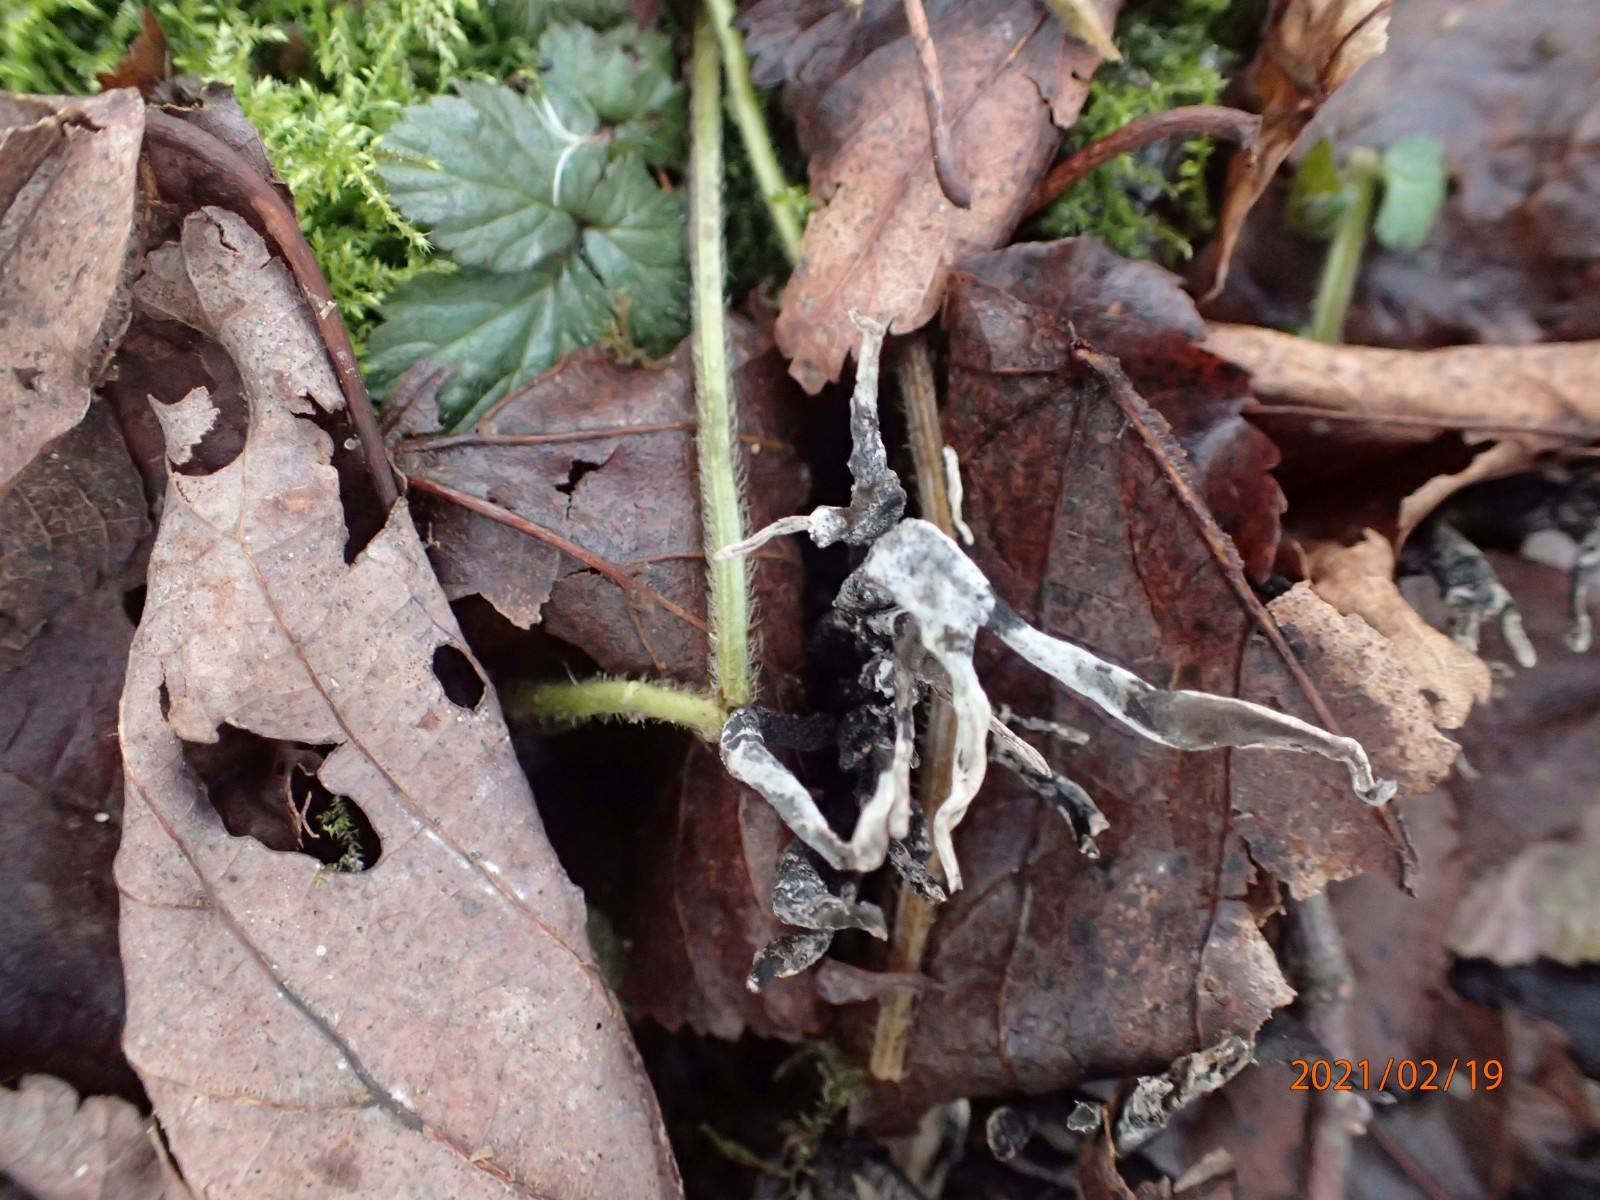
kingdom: Fungi
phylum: Ascomycota
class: Sordariomycetes
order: Xylariales
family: Xylariaceae
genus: Xylaria
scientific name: Xylaria hypoxylon
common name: grenet stødsvamp
